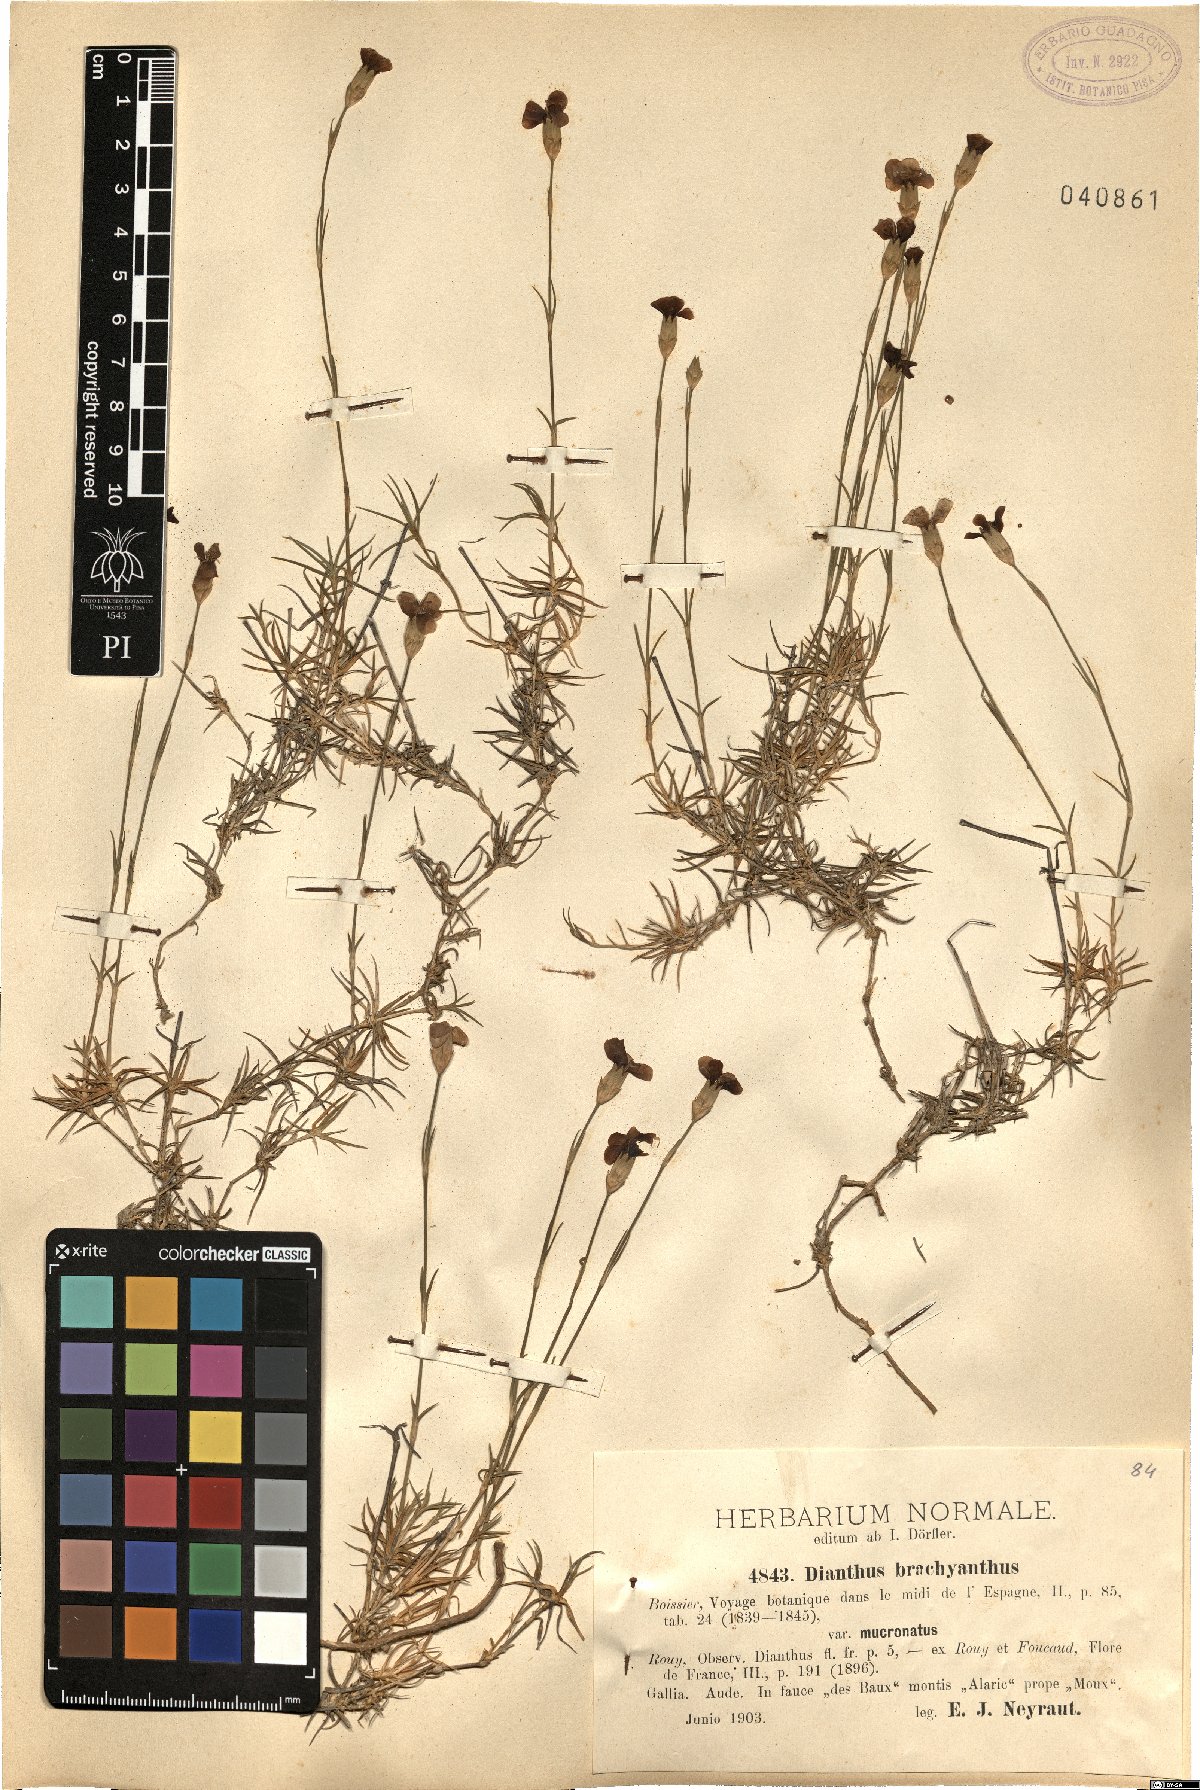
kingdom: Plantae
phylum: Tracheophyta
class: Magnoliopsida
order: Caryophyllales
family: Caryophyllaceae
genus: Dianthus
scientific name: Dianthus pungens
